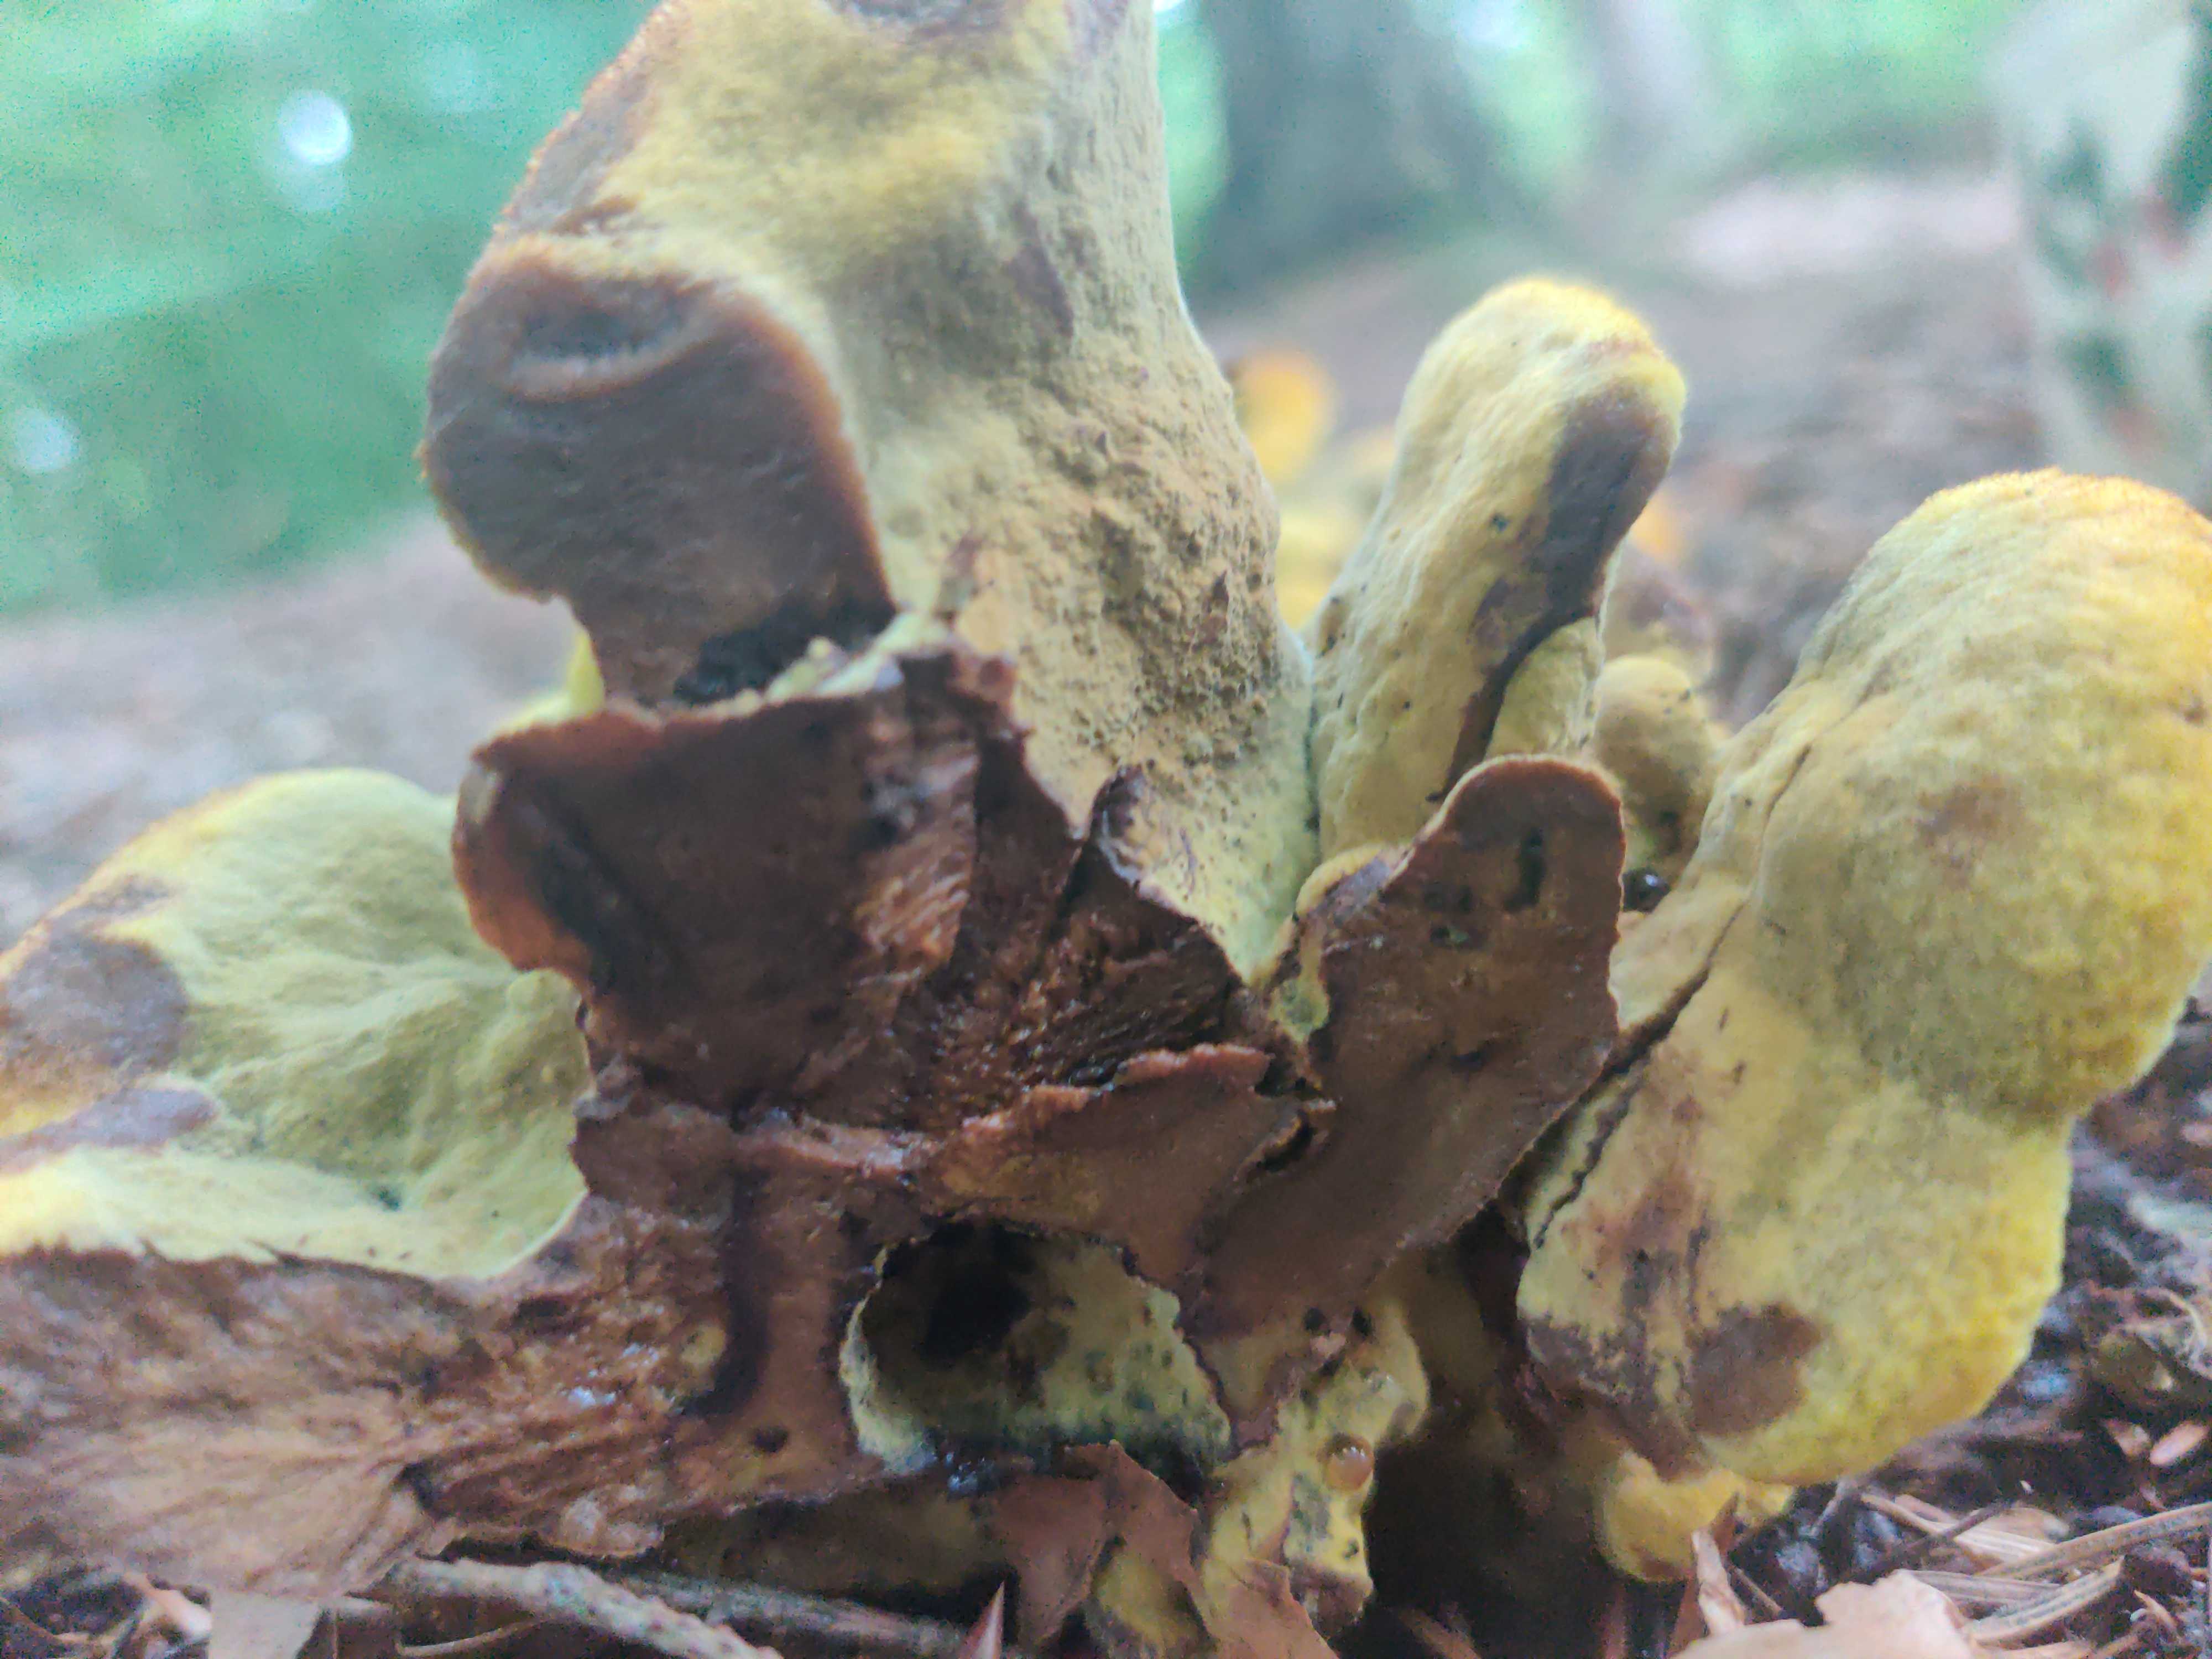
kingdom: Fungi
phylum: Basidiomycota
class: Agaricomycetes
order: Polyporales
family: Laetiporaceae
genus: Phaeolus
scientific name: Phaeolus schweinitzii
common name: brunporesvamp
